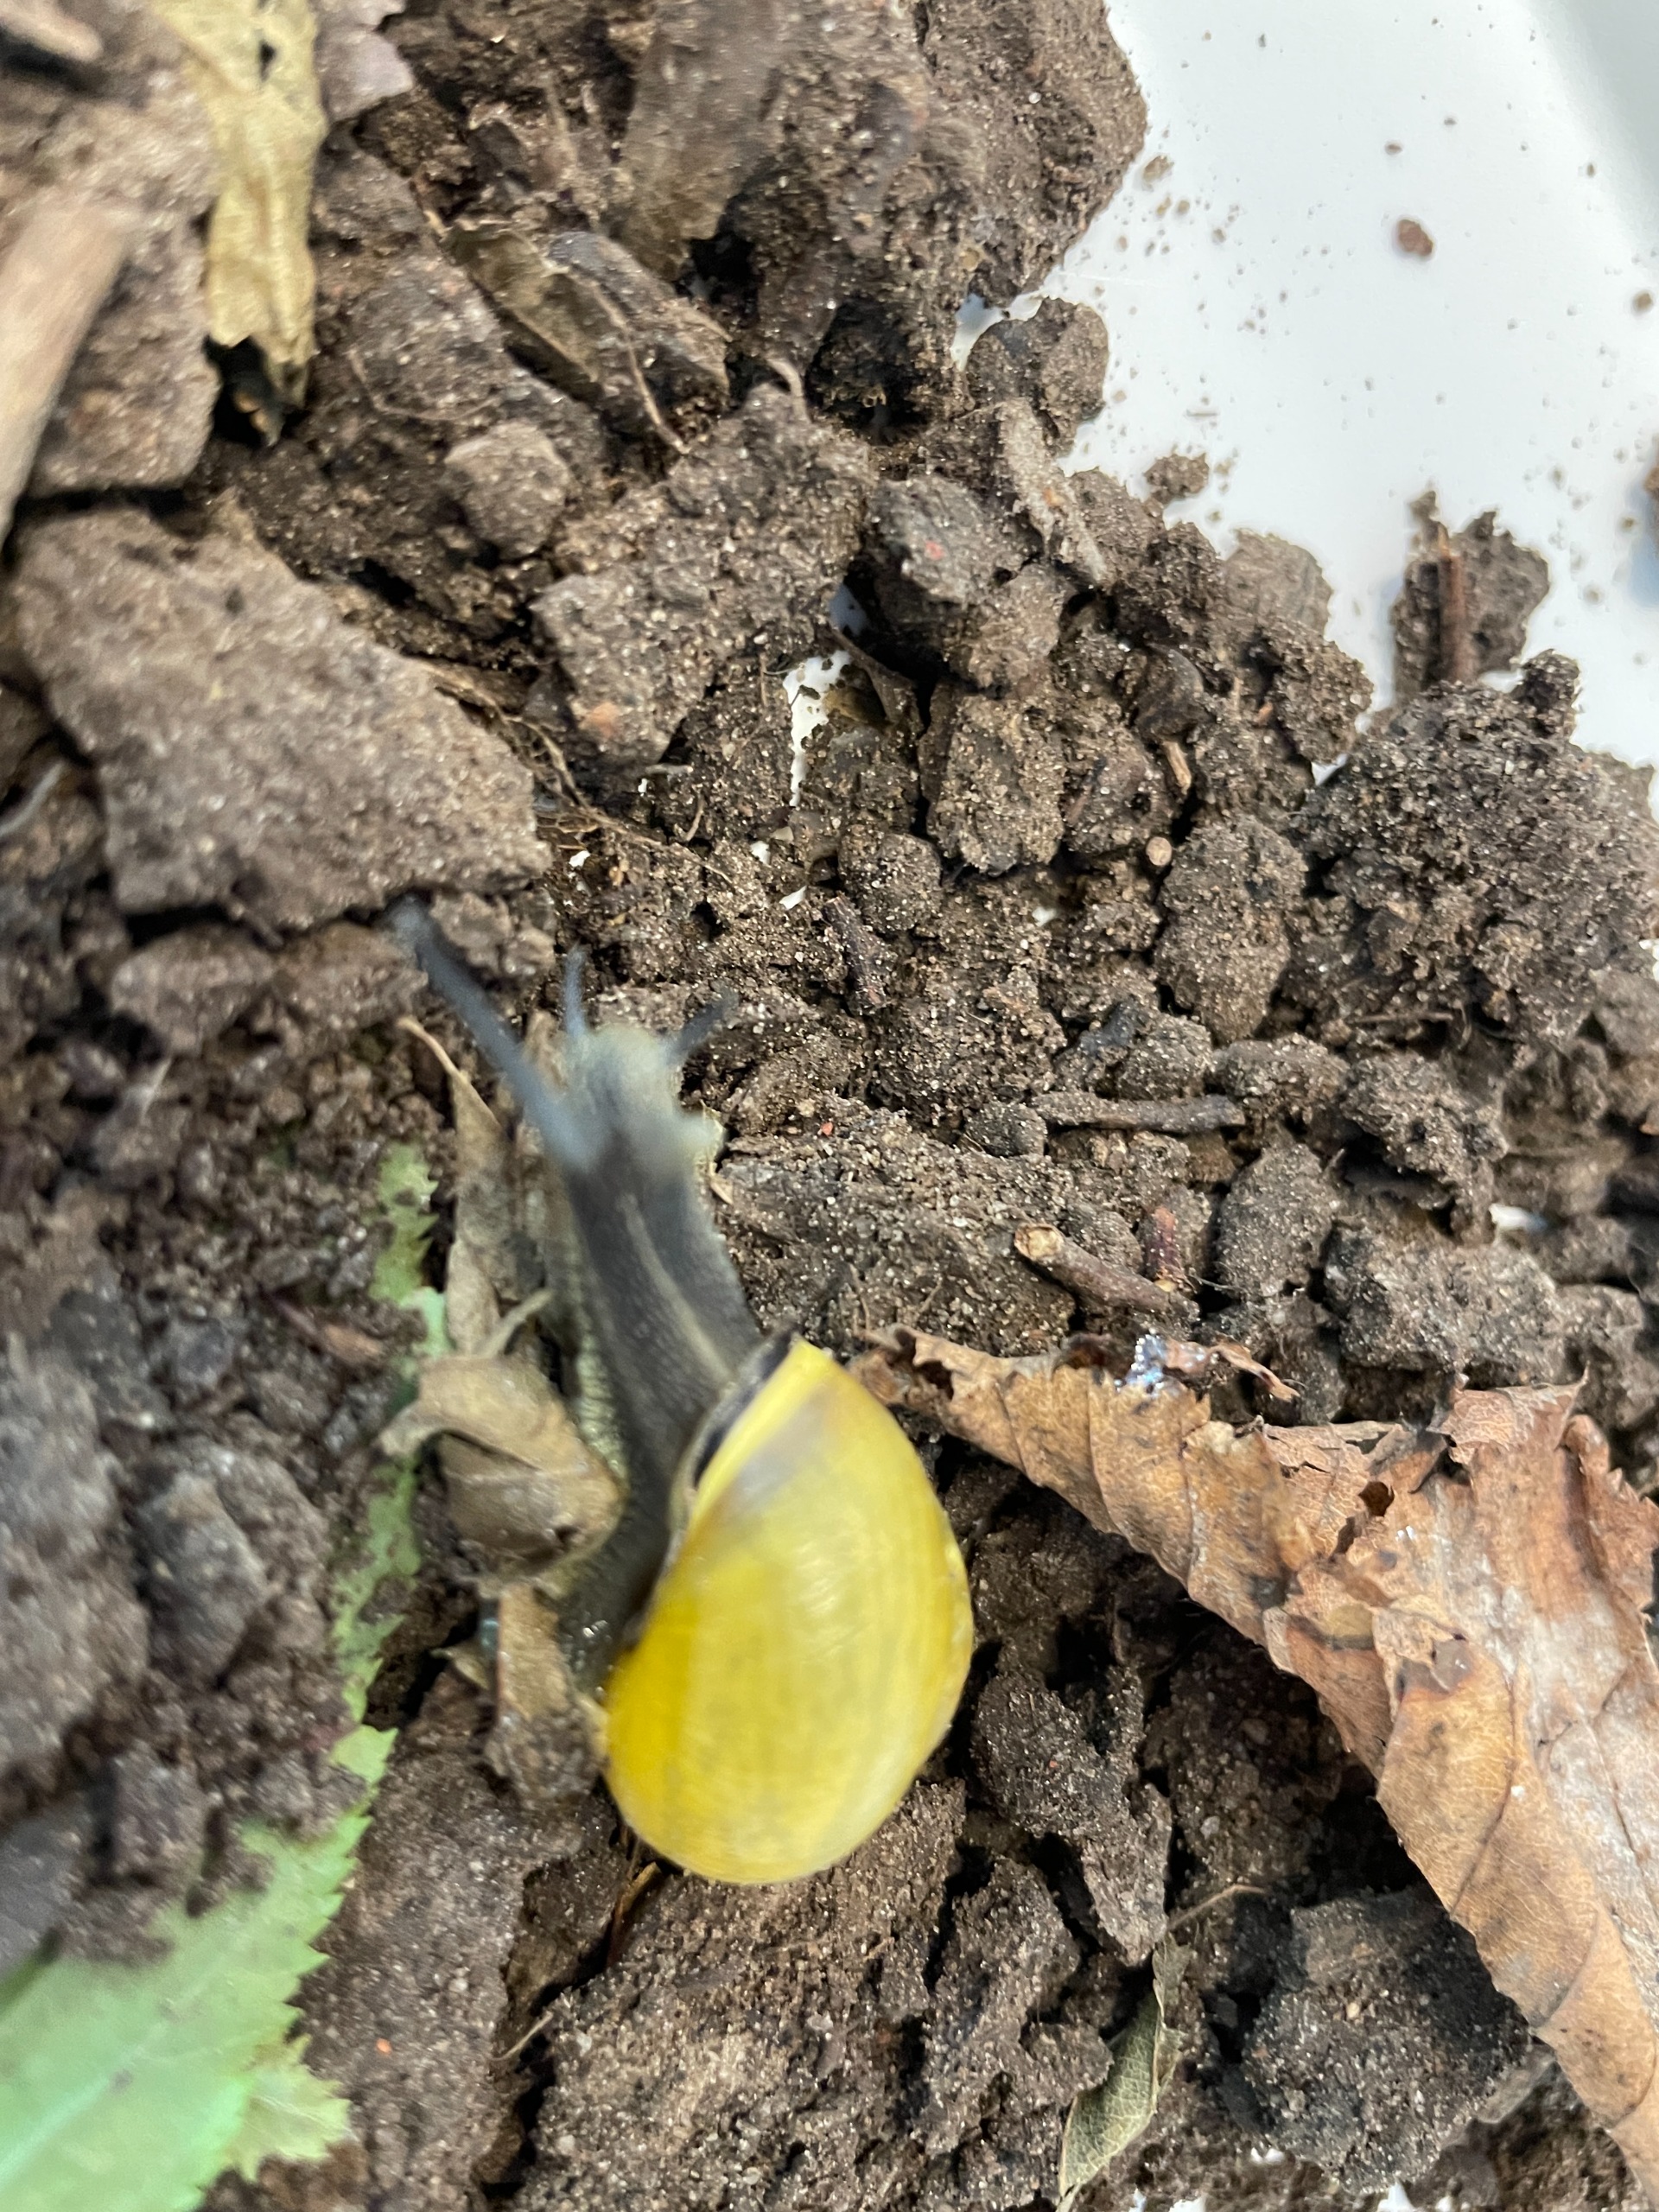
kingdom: Animalia
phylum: Mollusca
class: Gastropoda
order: Stylommatophora
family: Helicidae
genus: Cepaea
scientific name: Cepaea nemoralis
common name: Lundsnegl
